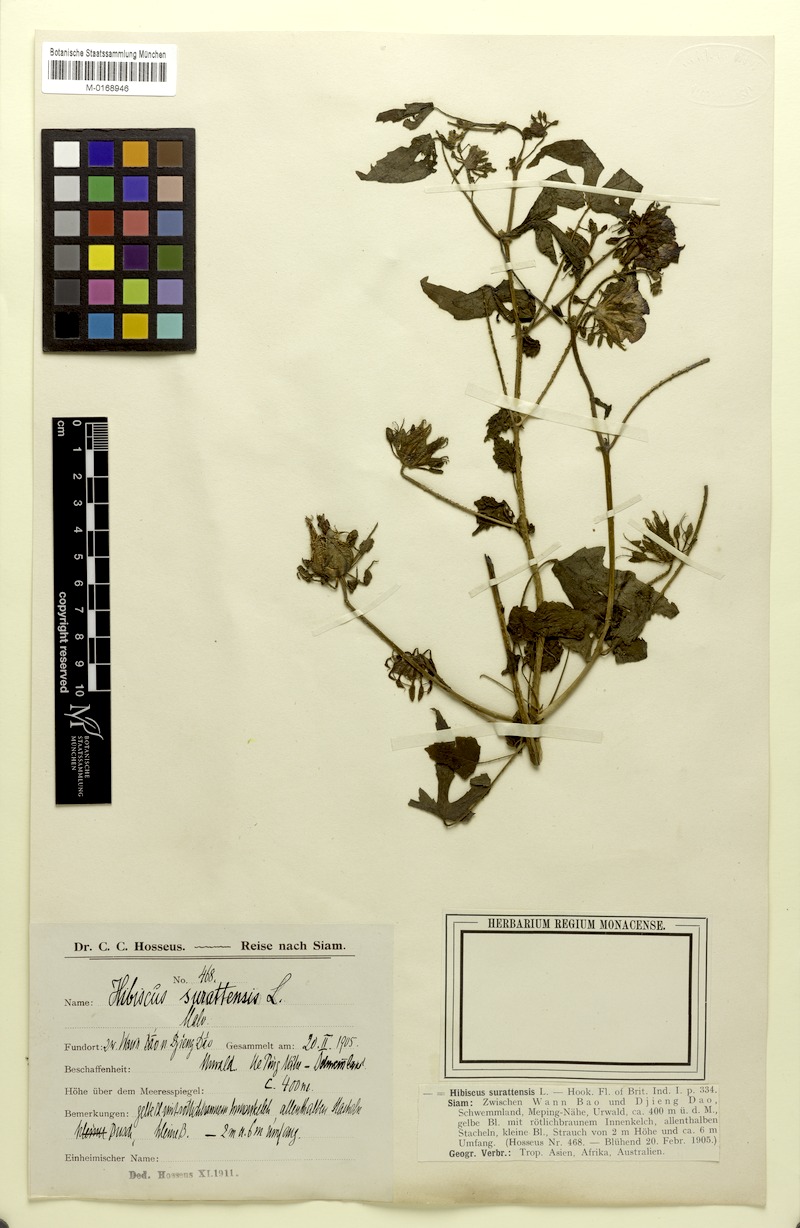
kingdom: Plantae
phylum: Tracheophyta
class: Magnoliopsida
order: Malvales
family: Malvaceae
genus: Hibiscus
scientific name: Hibiscus surattensis
